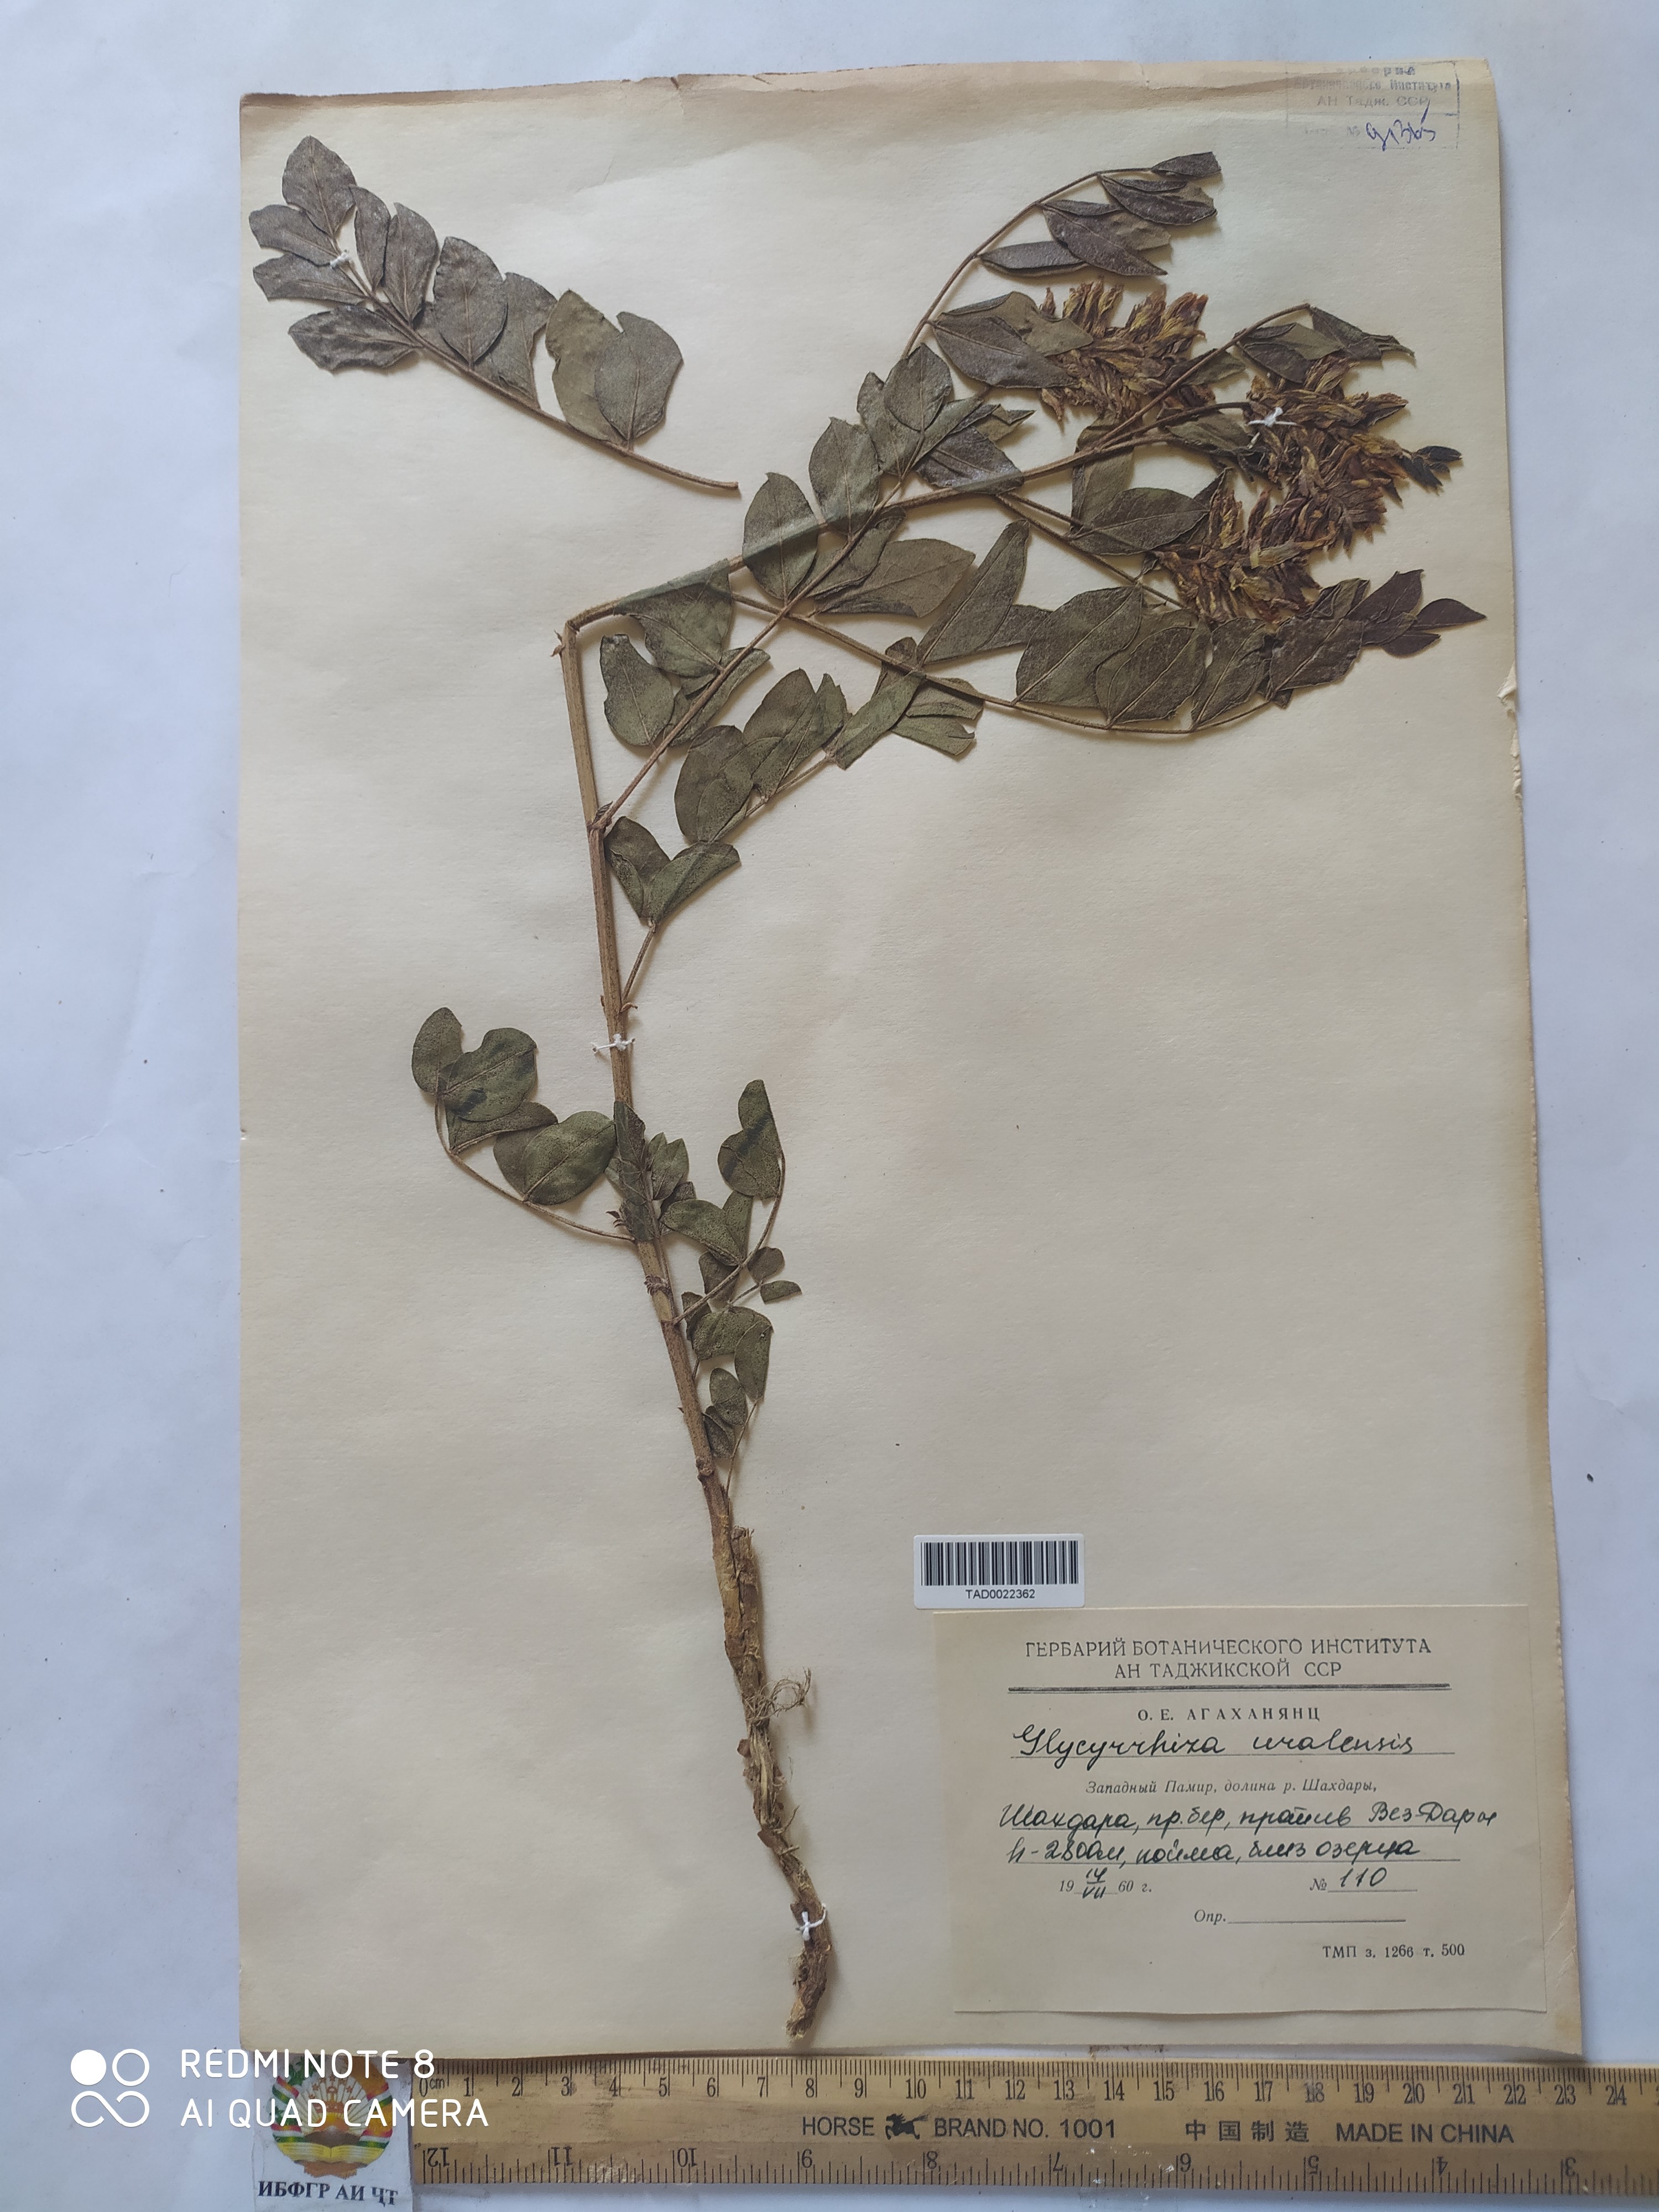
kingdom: Plantae
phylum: Tracheophyta
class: Magnoliopsida
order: Fabales
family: Fabaceae
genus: Glycyrrhiza
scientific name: Glycyrrhiza uralensis
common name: Chinese licorice
